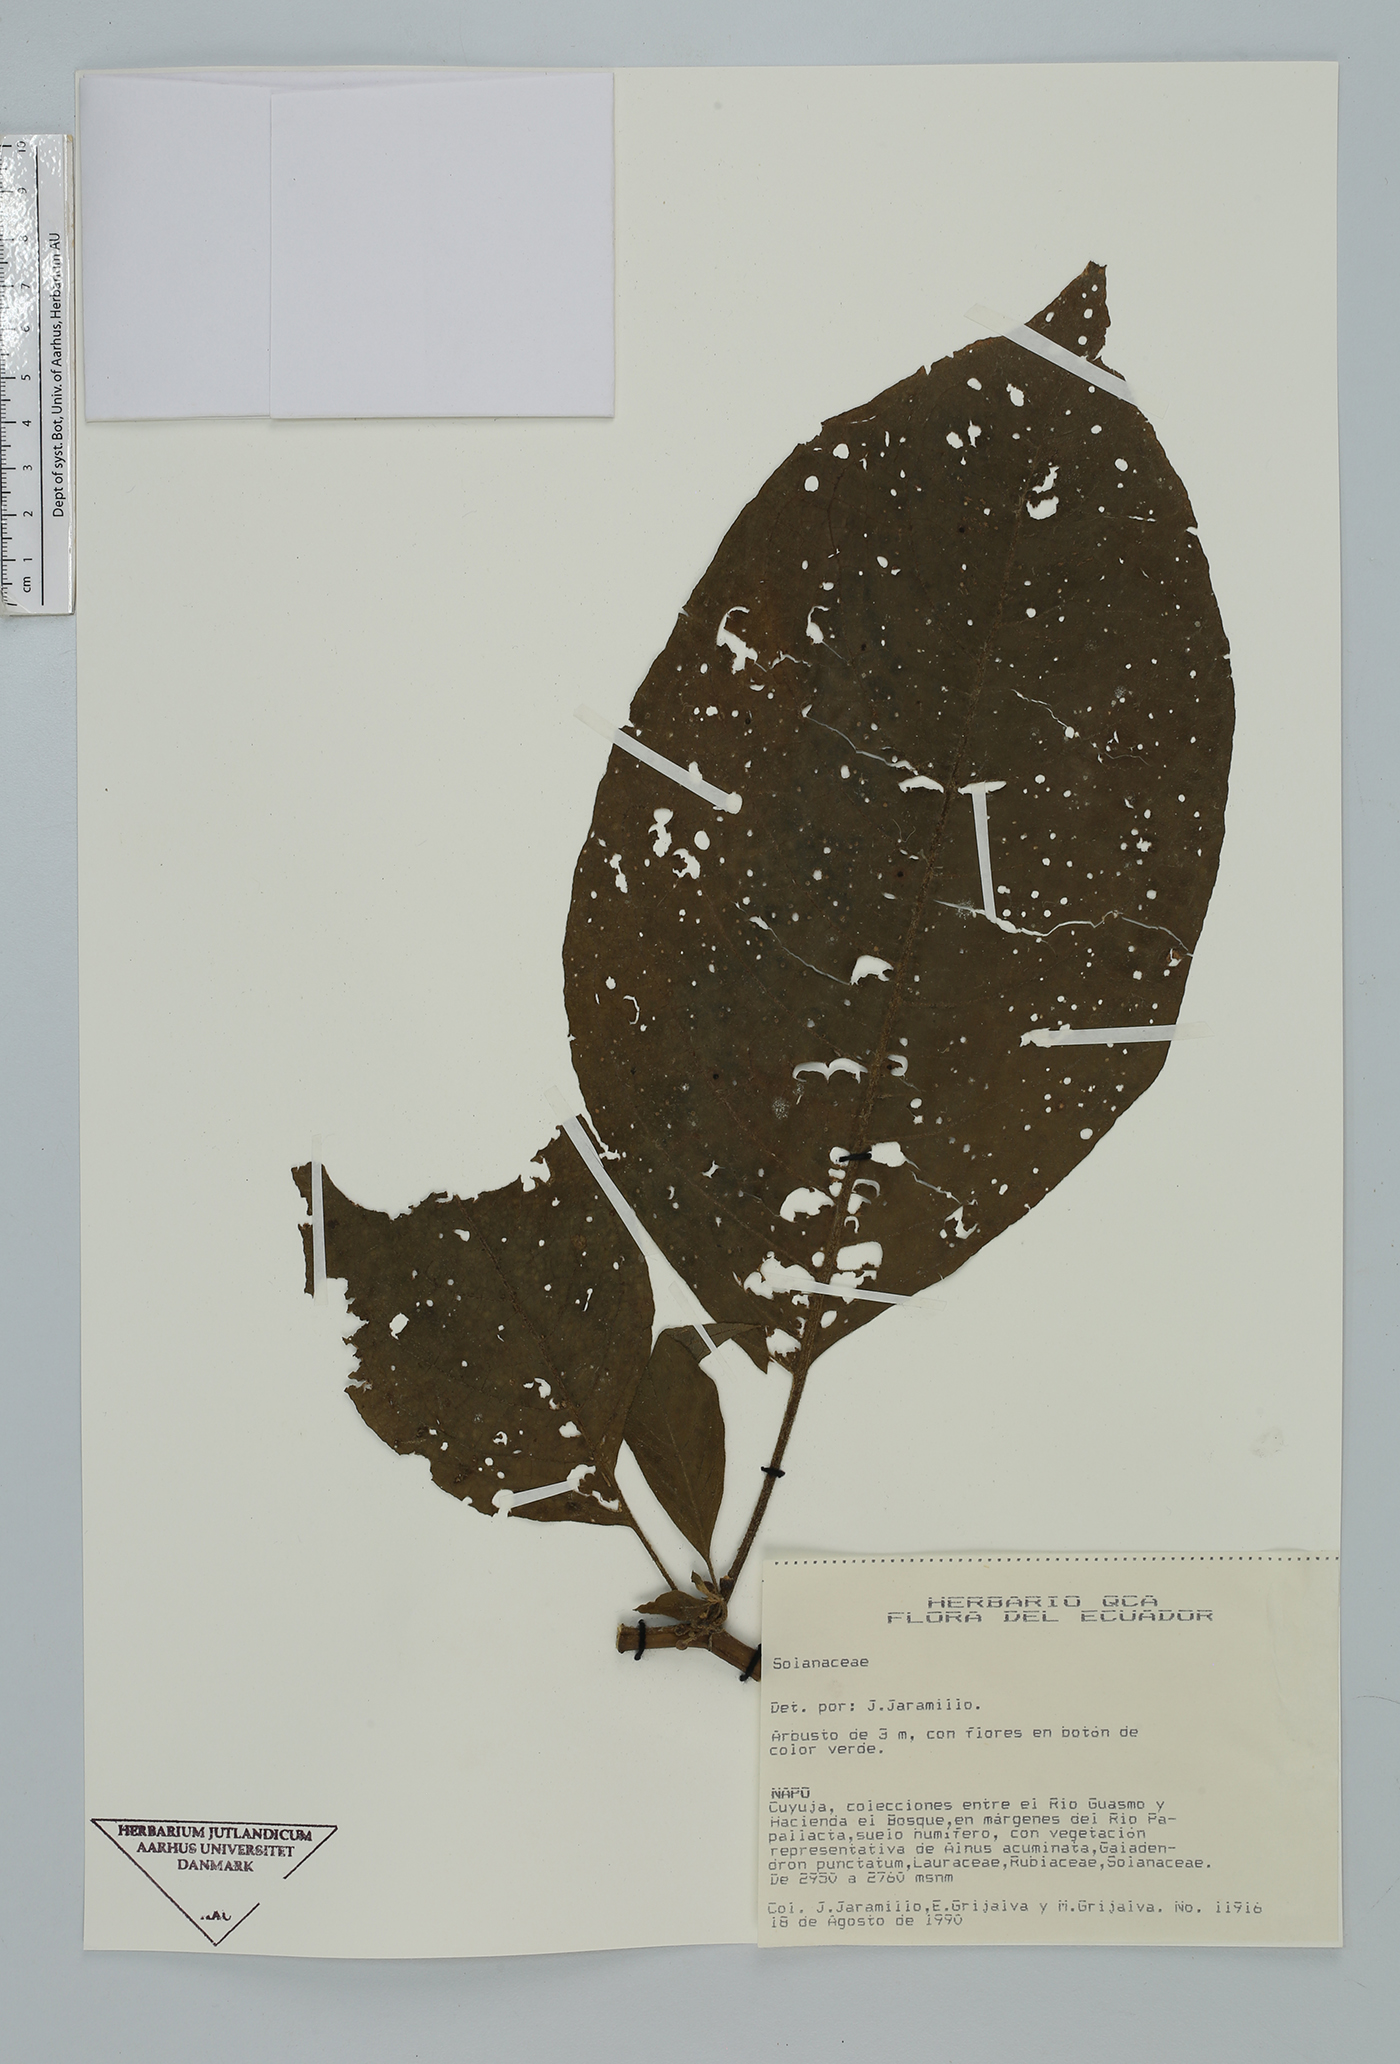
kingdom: Plantae
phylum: Tracheophyta
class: Magnoliopsida
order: Solanales
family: Solanaceae
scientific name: Solanaceae
